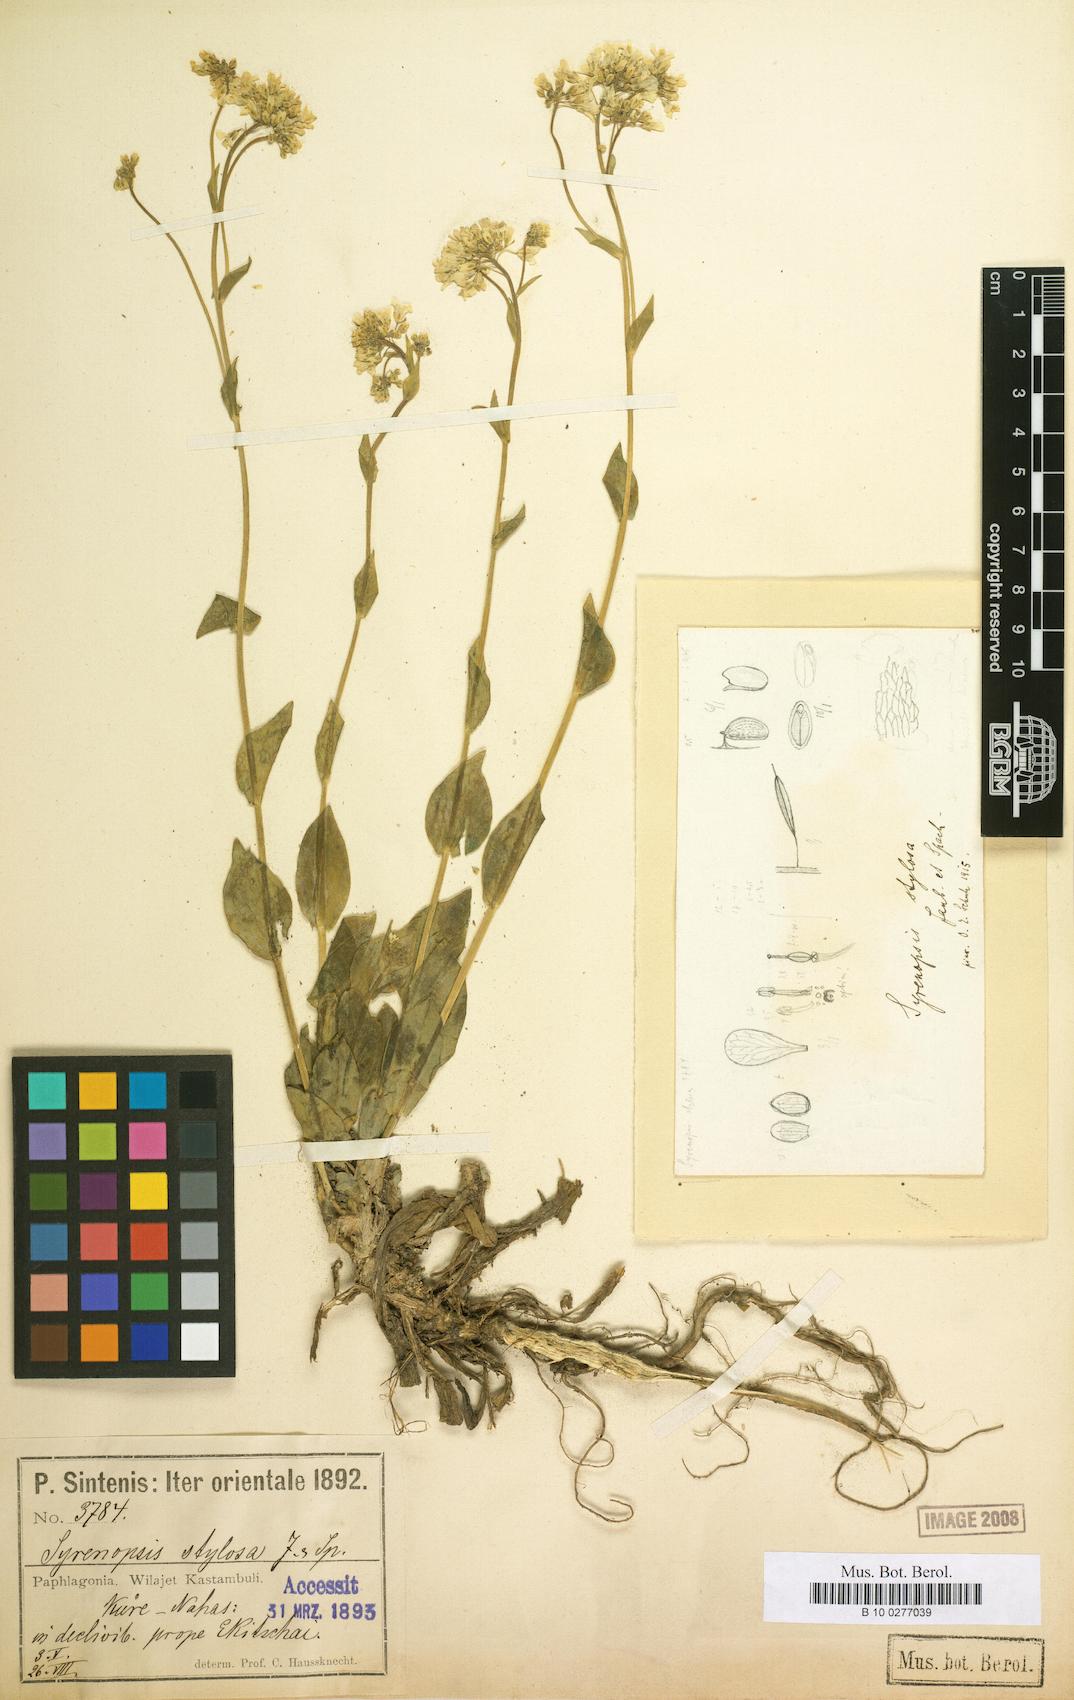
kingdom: Plantae
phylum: Tracheophyta
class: Magnoliopsida
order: Brassicales
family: Brassicaceae
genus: Noccaea
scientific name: Noccaea jaubertii
